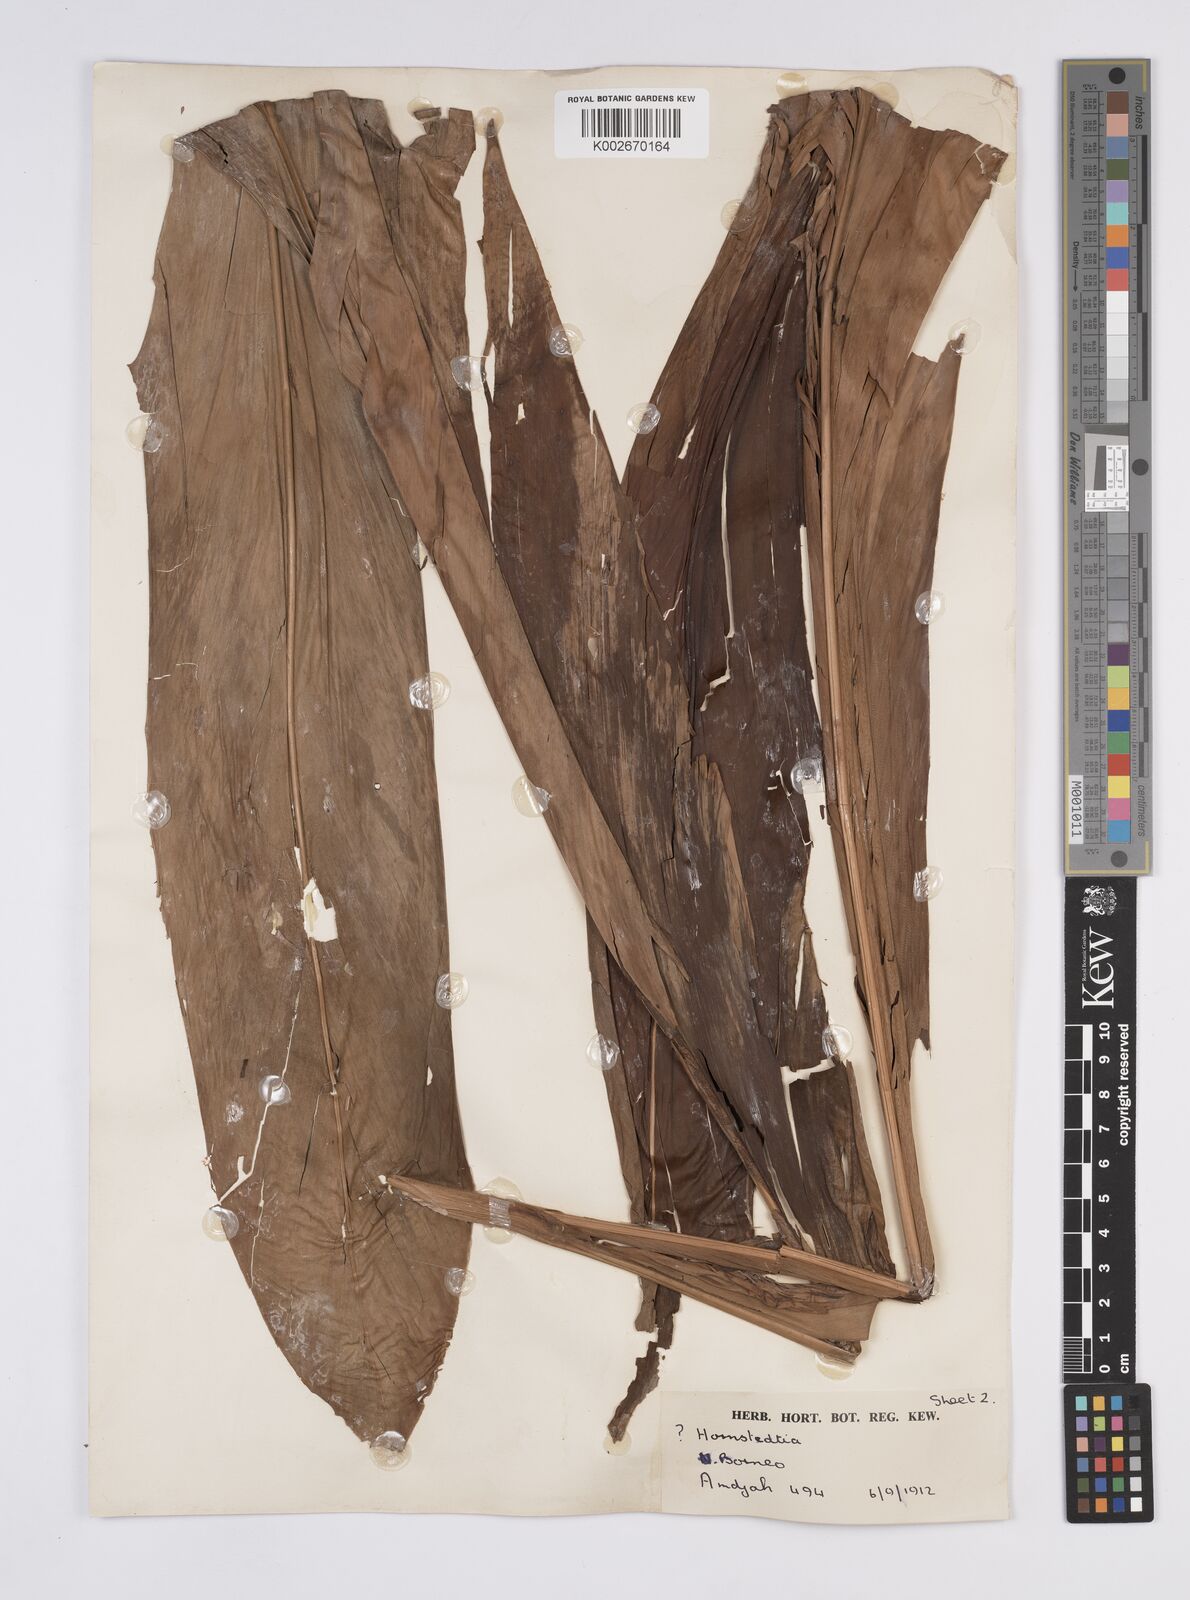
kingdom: Plantae
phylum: Tracheophyta
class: Liliopsida
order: Zingiberales
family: Zingiberaceae
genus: Hornstedtia
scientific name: Hornstedtia havilandii
